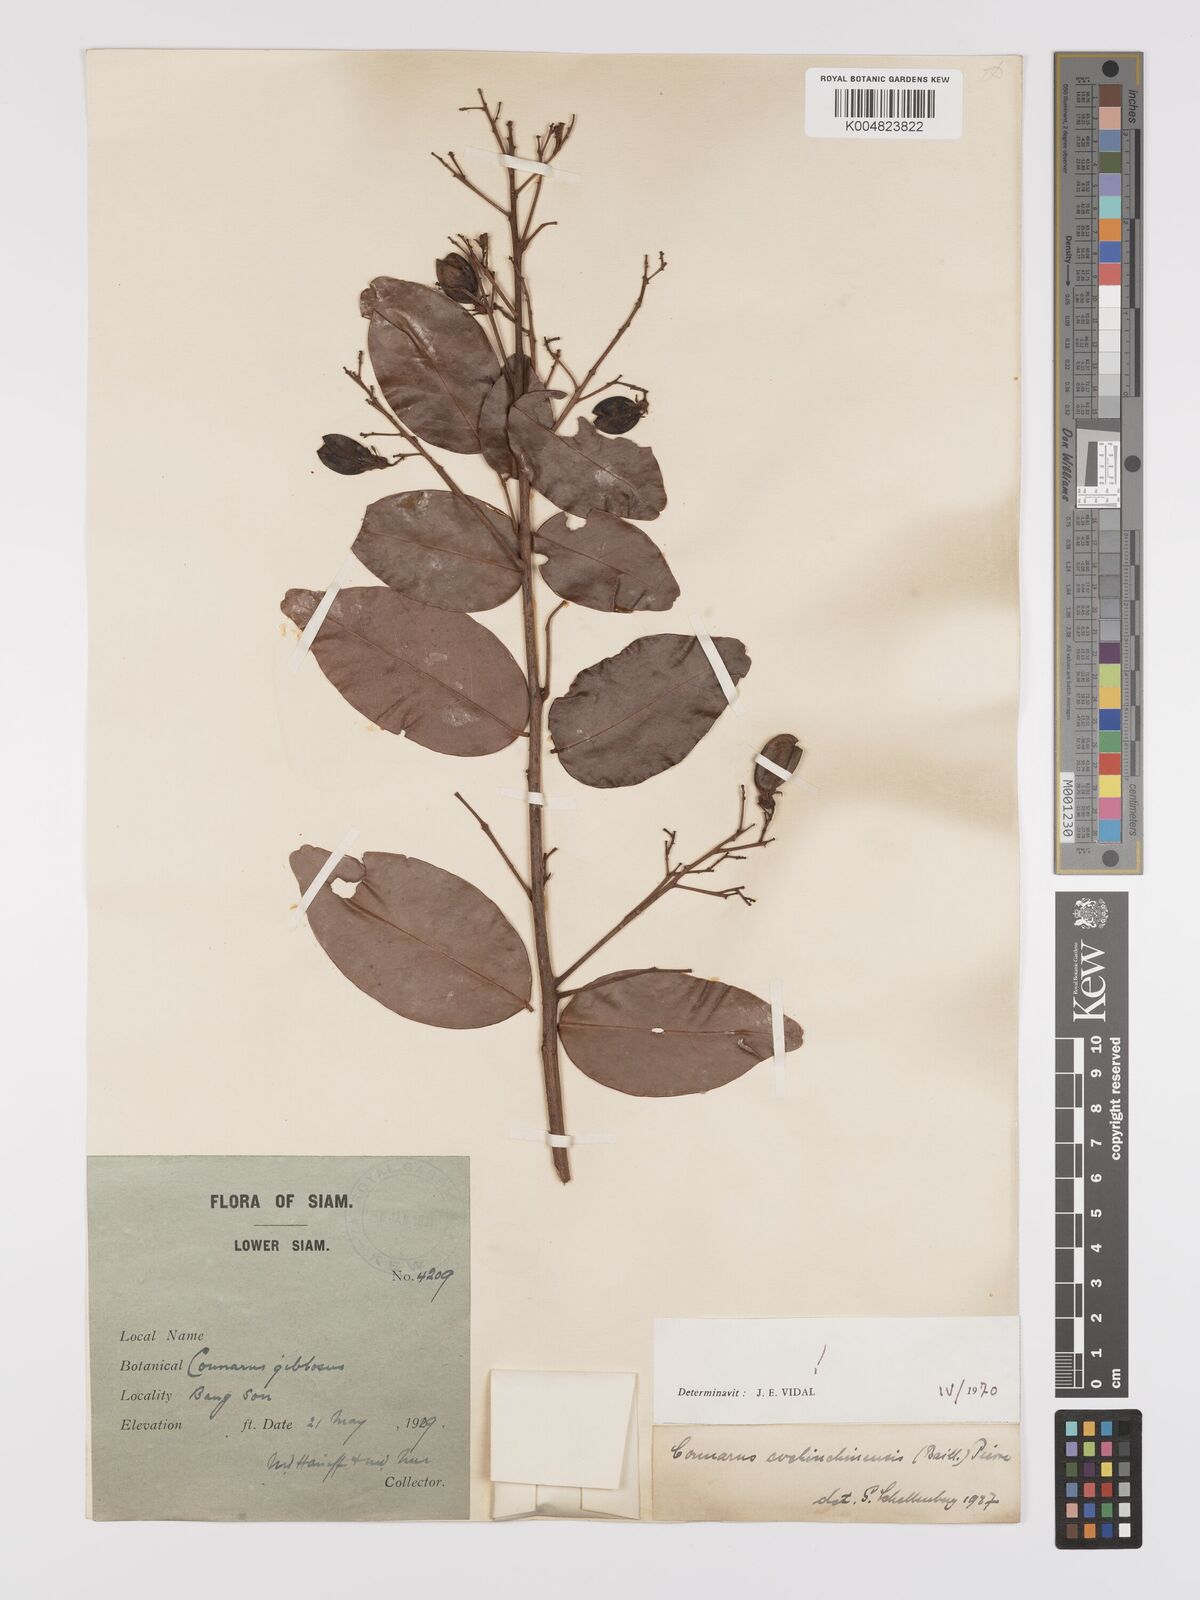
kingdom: Plantae
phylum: Tracheophyta
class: Magnoliopsida
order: Oxalidales
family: Connaraceae
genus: Connarus
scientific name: Connarus cochinchinensis
